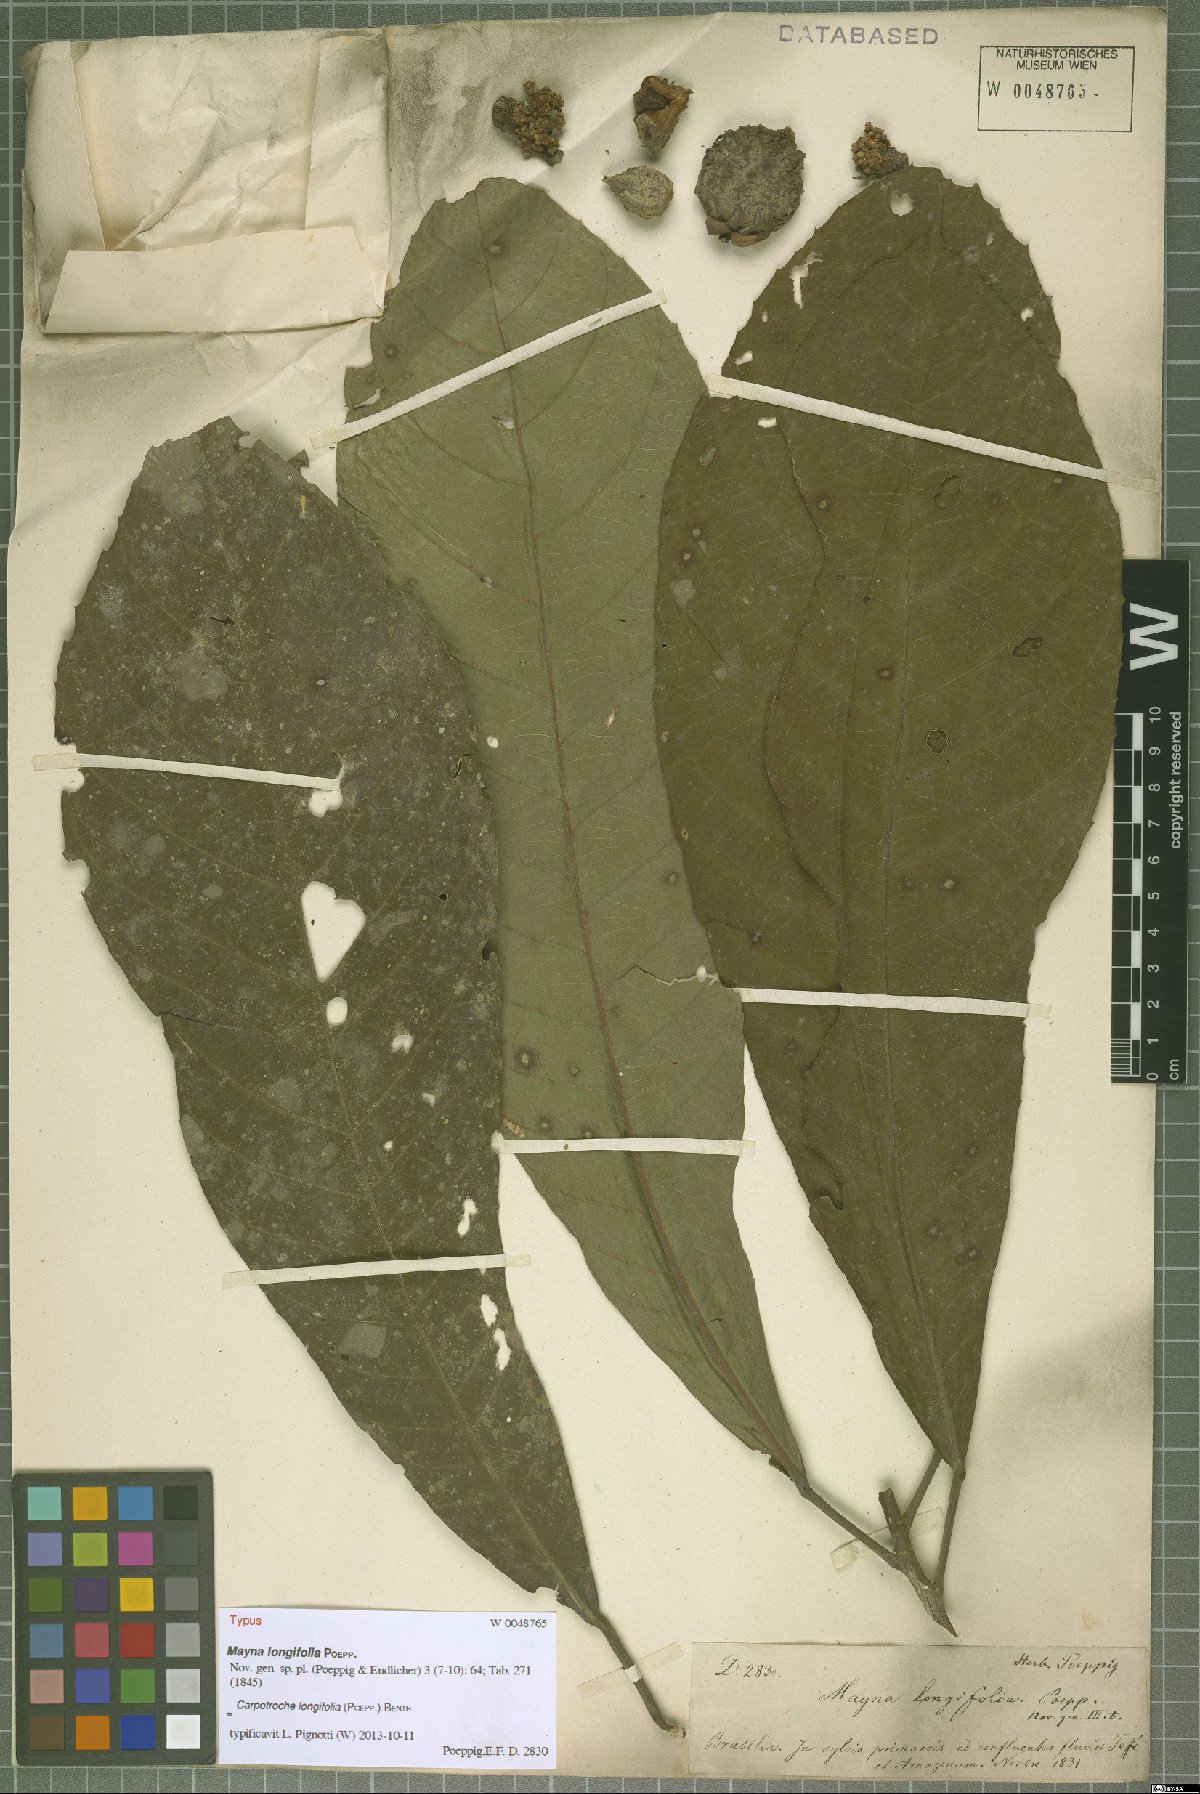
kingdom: Plantae
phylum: Tracheophyta
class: Magnoliopsida
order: Malpighiales
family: Achariaceae
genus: Carpotroche
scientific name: Carpotroche longifolia
